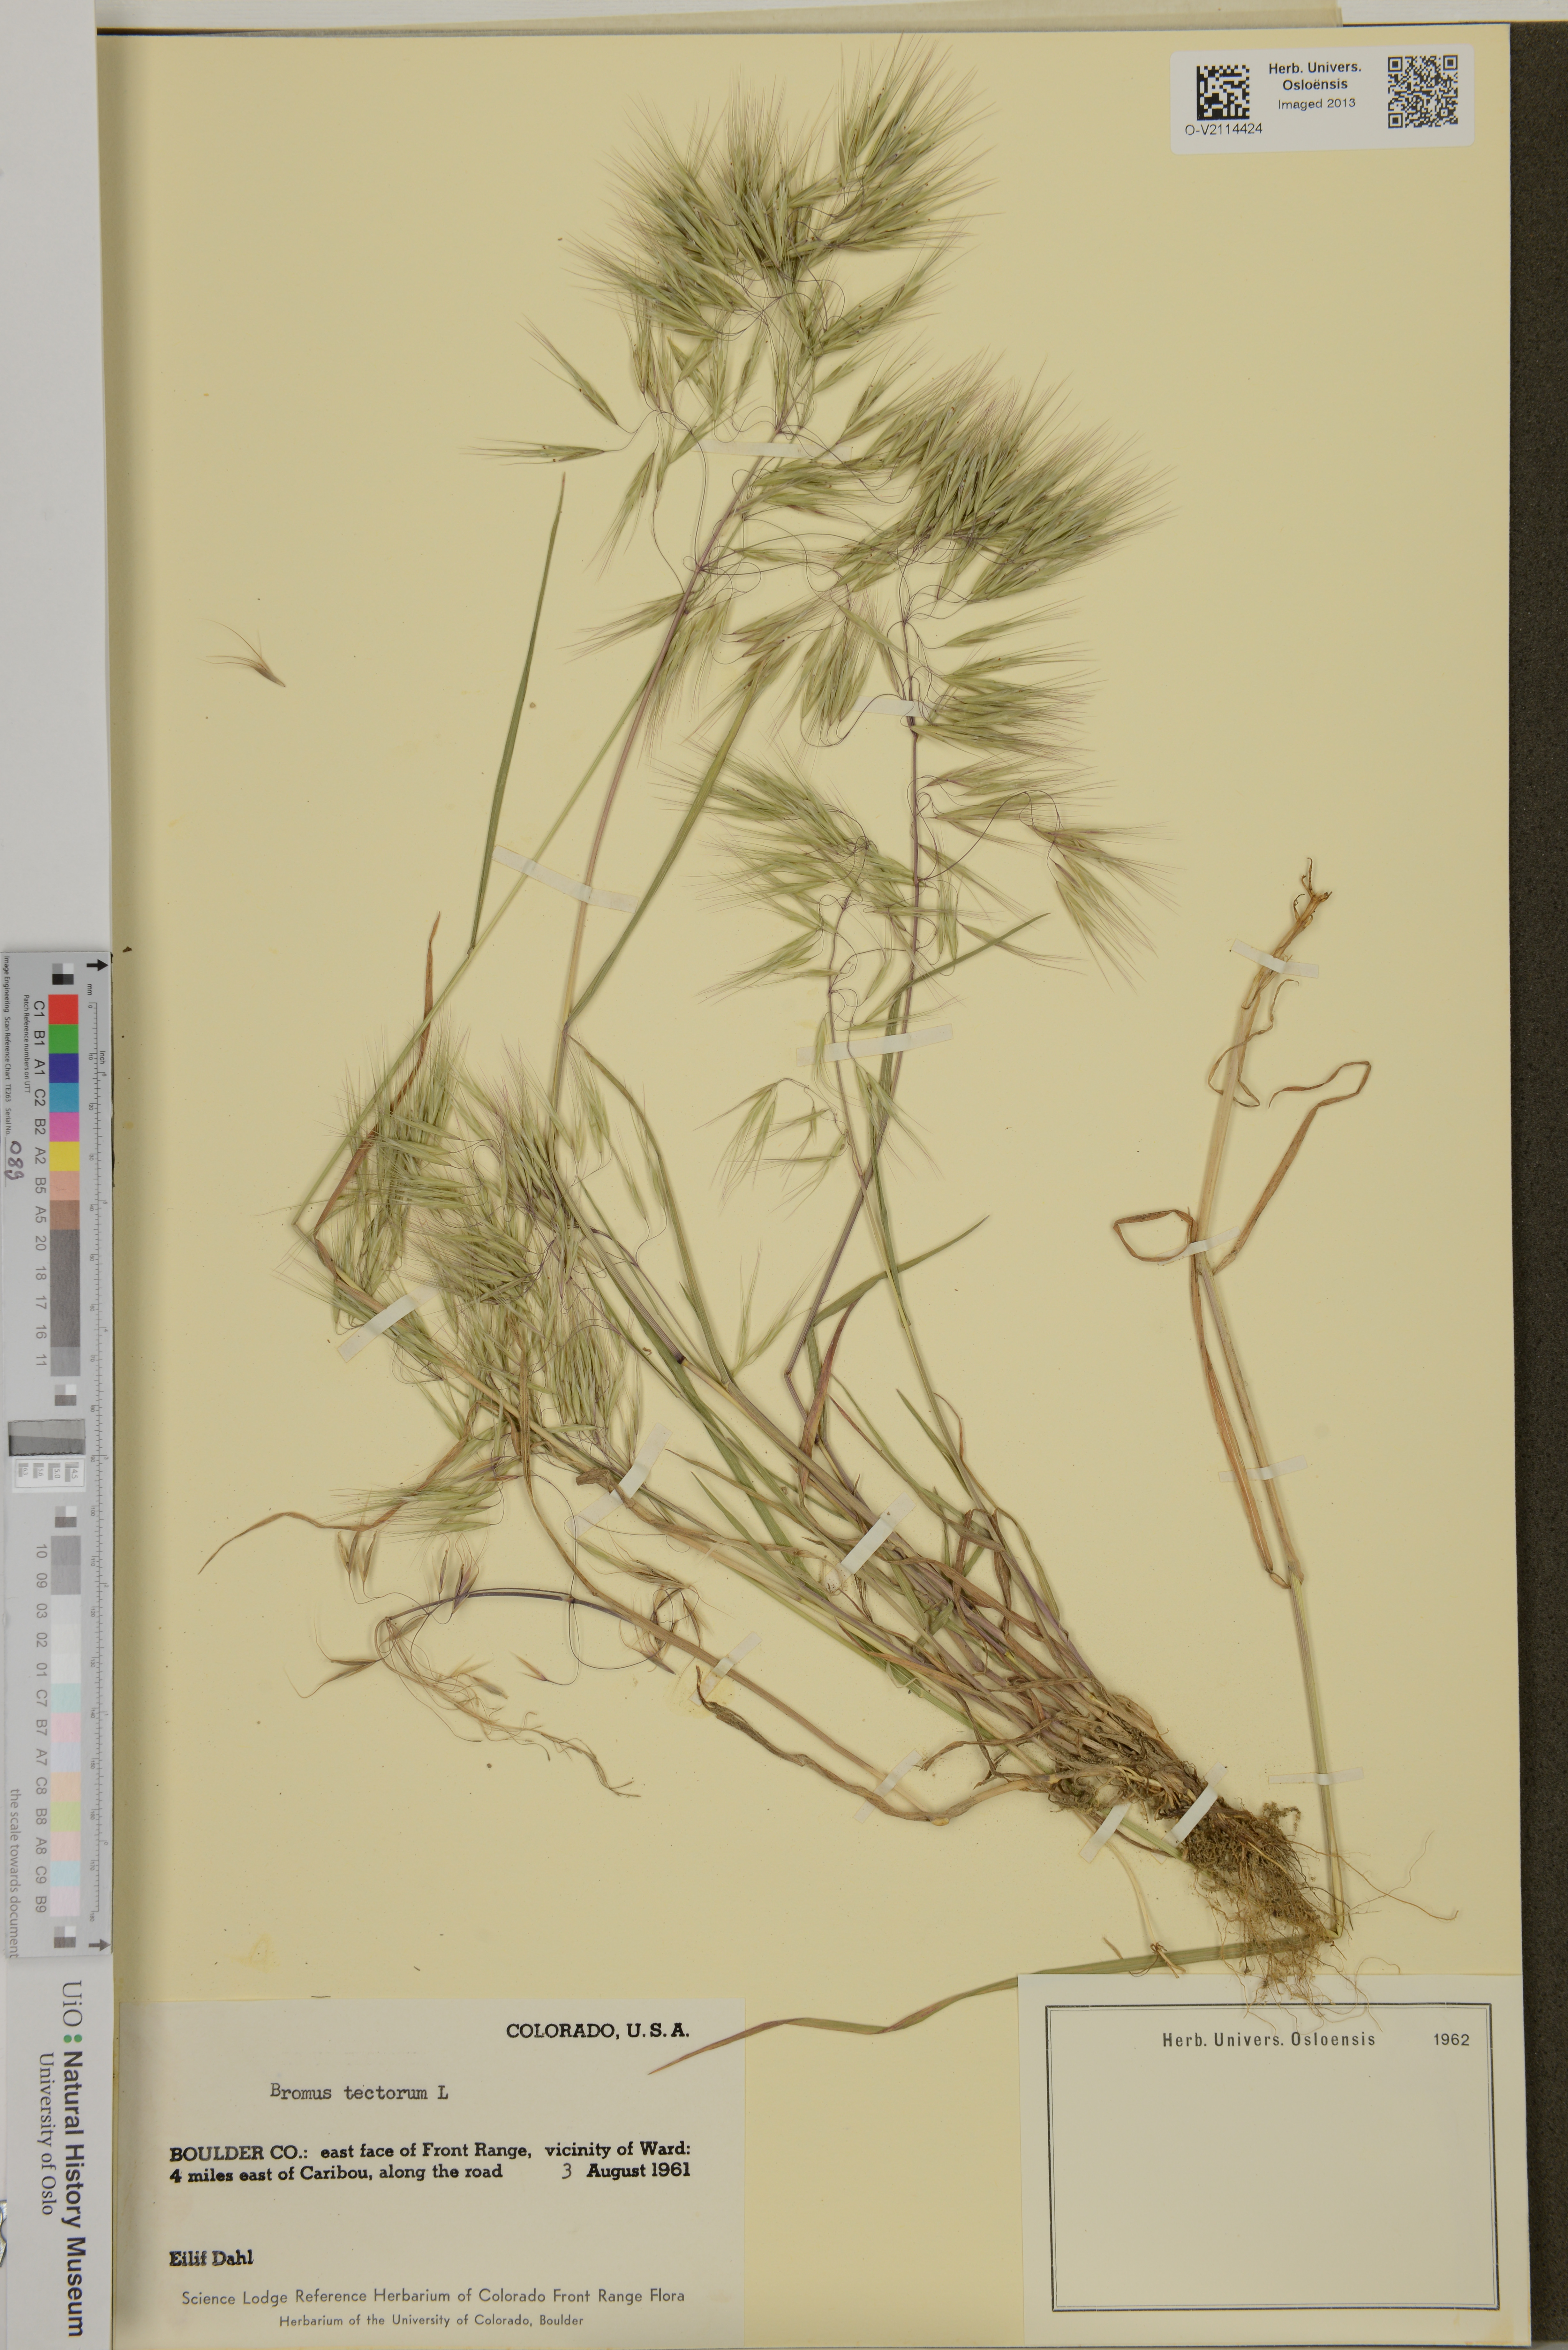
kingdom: Plantae
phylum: Tracheophyta
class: Liliopsida
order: Poales
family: Poaceae
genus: Bromus
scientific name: Bromus tectorum
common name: Cheatgrass
